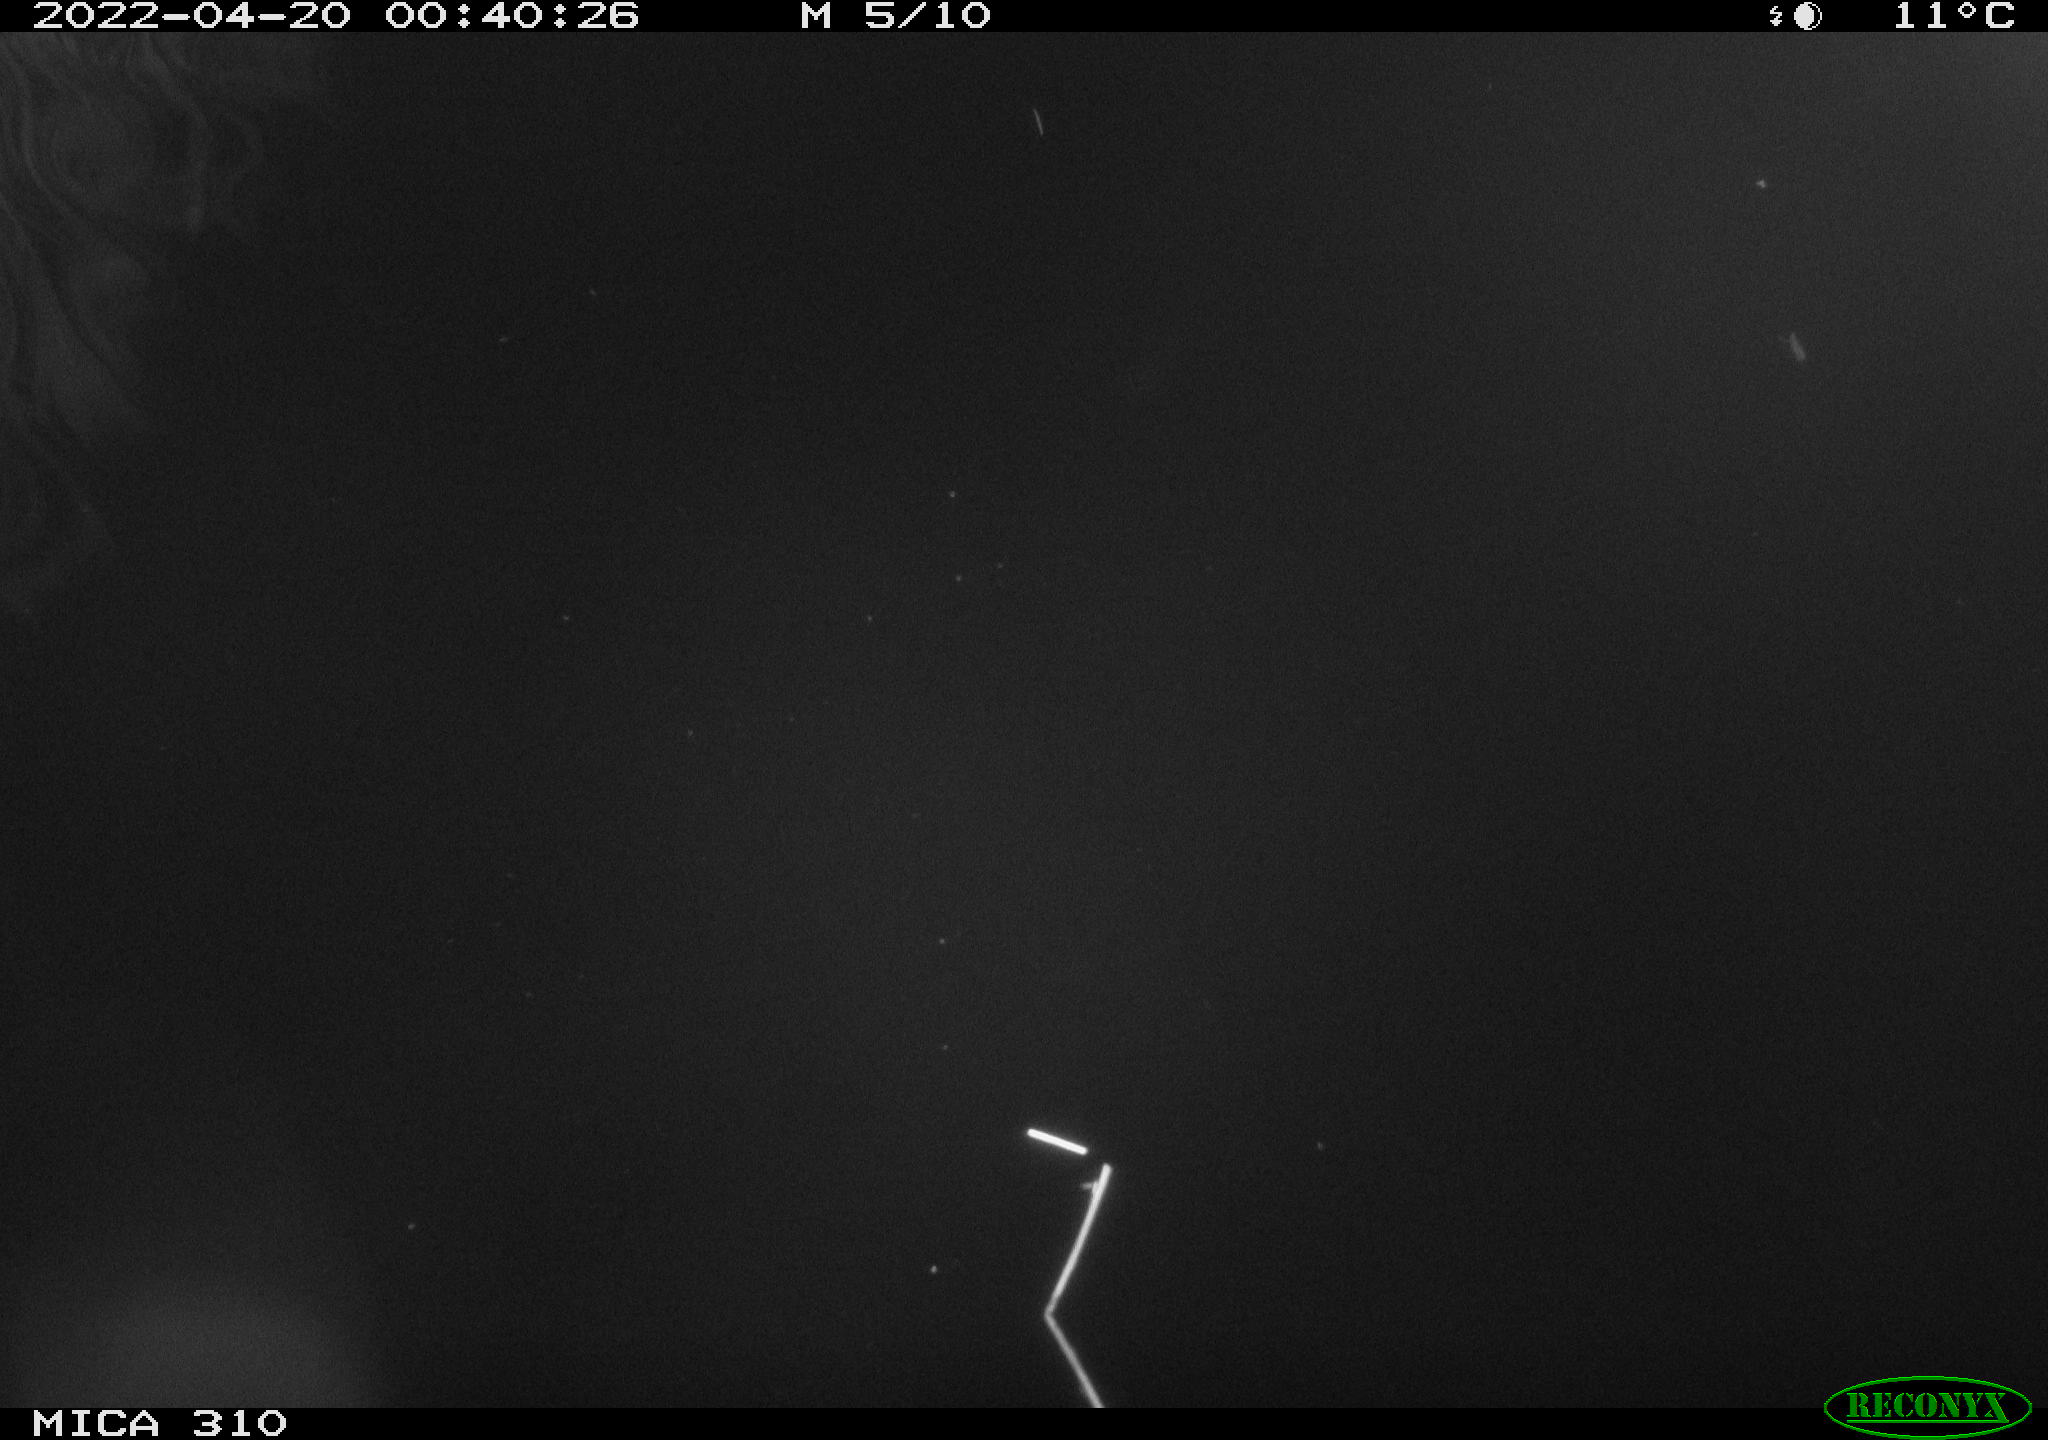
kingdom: Animalia
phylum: Chordata
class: Aves
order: Anseriformes
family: Anatidae
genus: Anas
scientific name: Anas platyrhynchos
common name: Mallard
